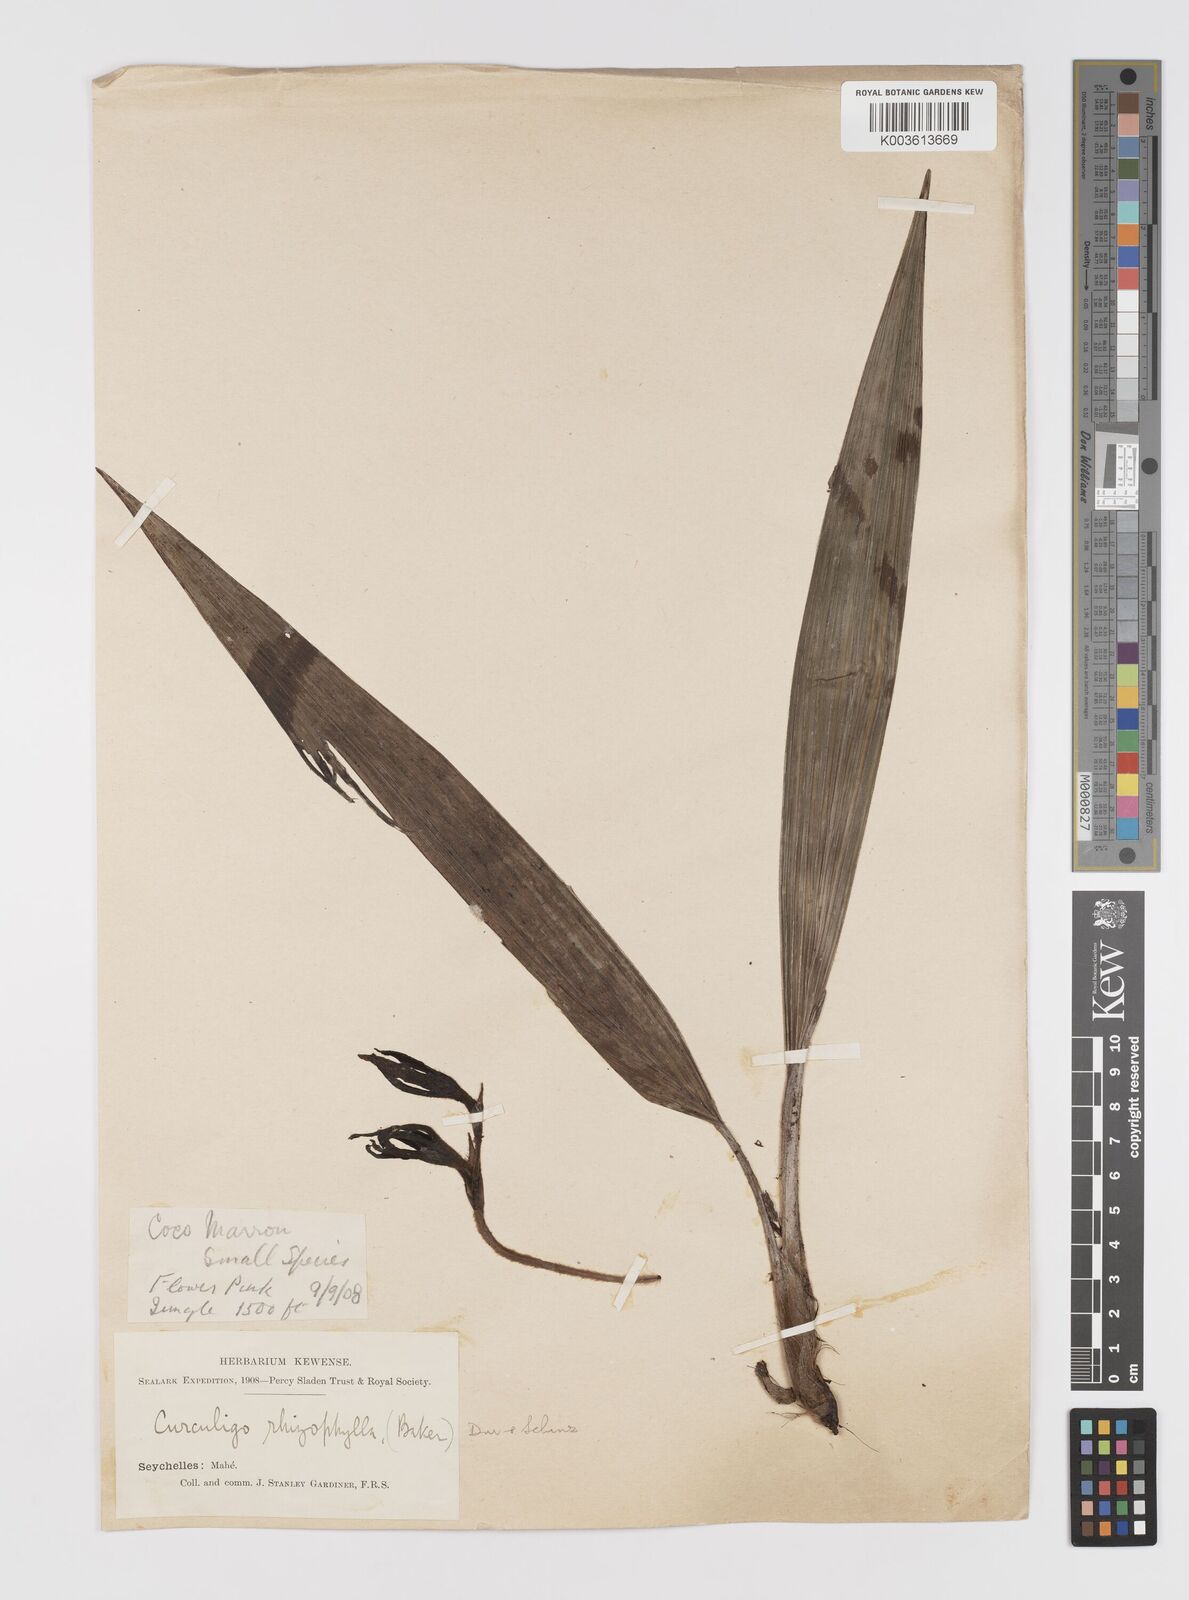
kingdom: Plantae
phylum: Tracheophyta
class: Liliopsida
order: Asparagales
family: Hypoxidaceae
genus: Curculigo
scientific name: Curculigo maheensis
